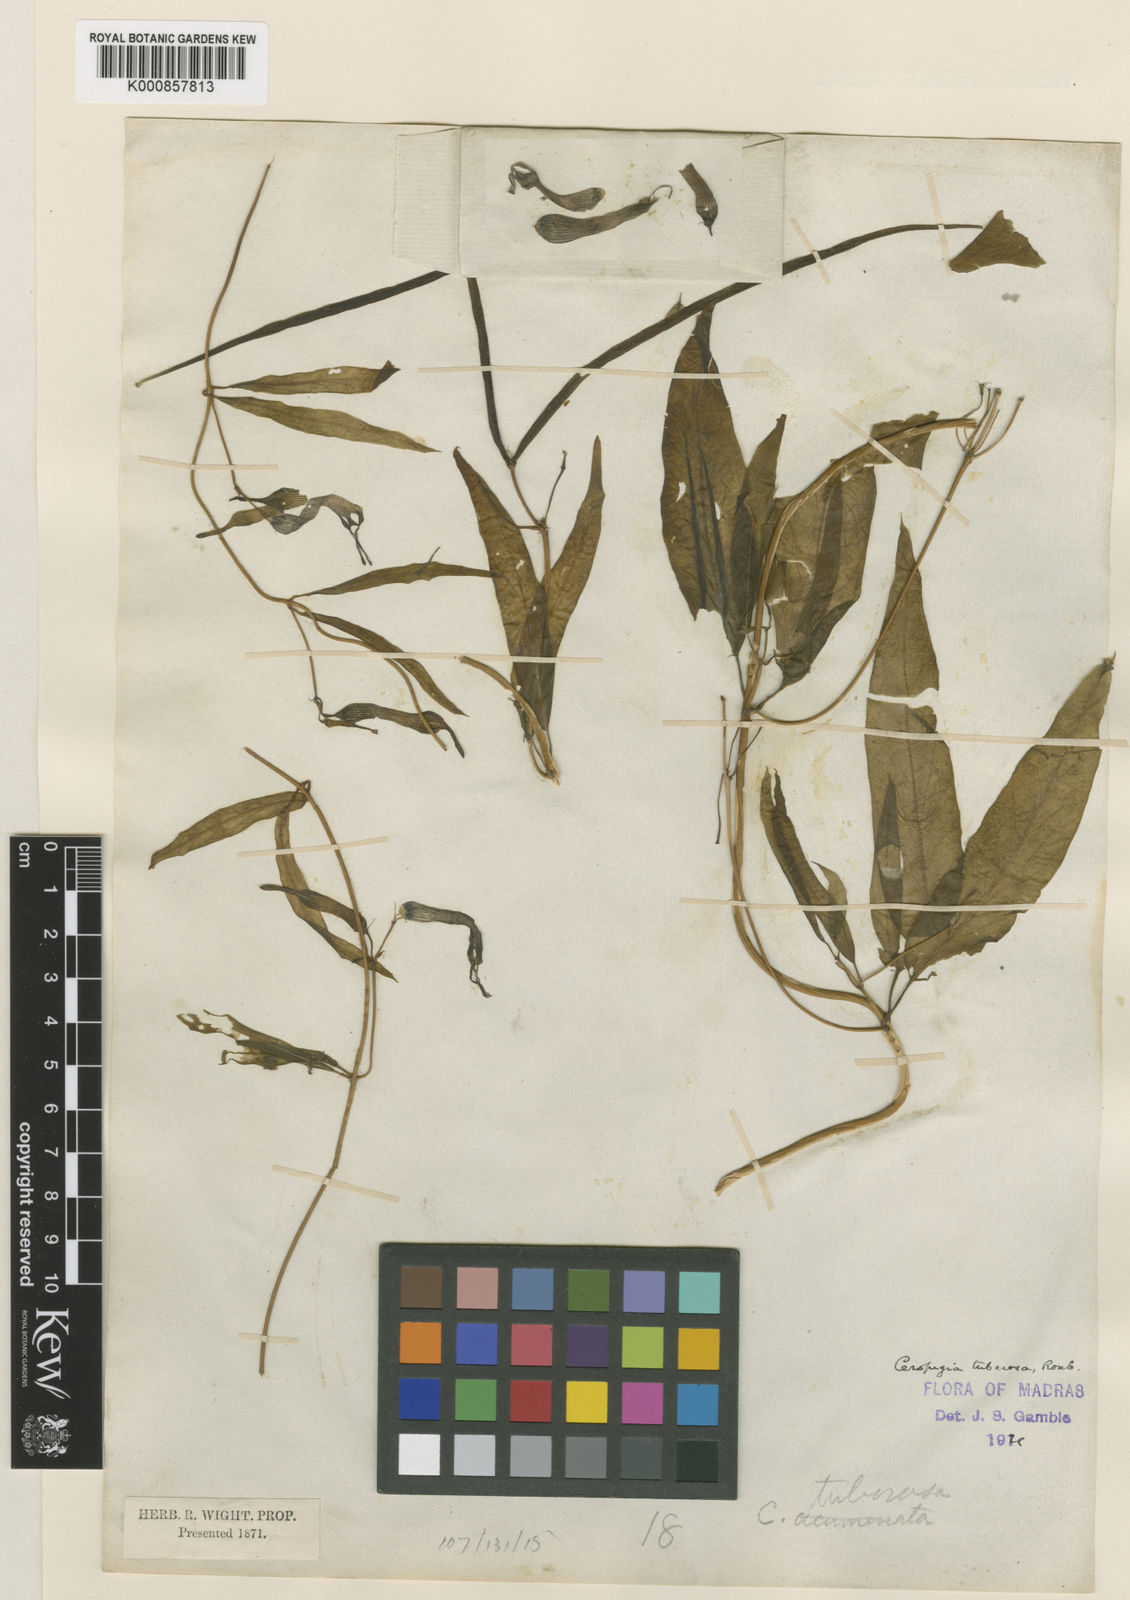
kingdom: Plantae
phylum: Tracheophyta
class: Magnoliopsida
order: Gentianales
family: Apocynaceae
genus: Ceropegia
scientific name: Ceropegia candelabrum
